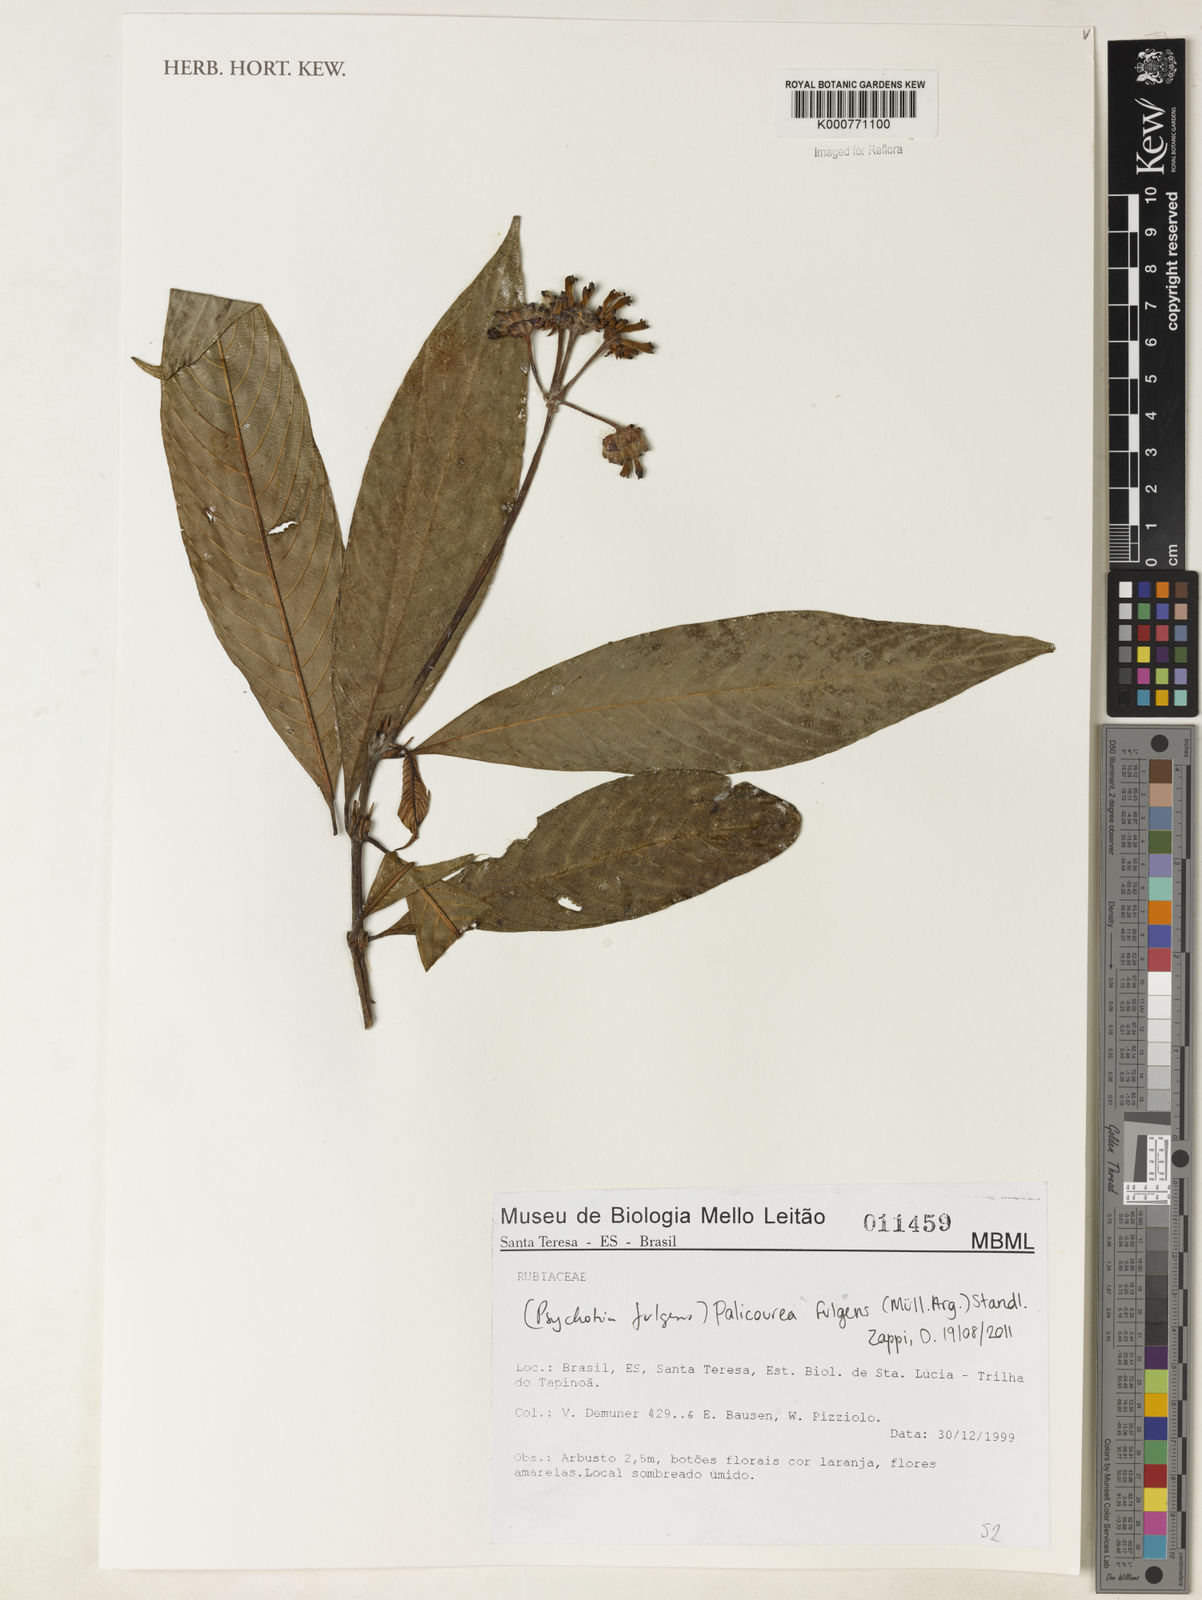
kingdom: Plantae
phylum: Tracheophyta
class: Magnoliopsida
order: Gentianales
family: Rubiaceae
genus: Palicourea
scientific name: Palicourea
